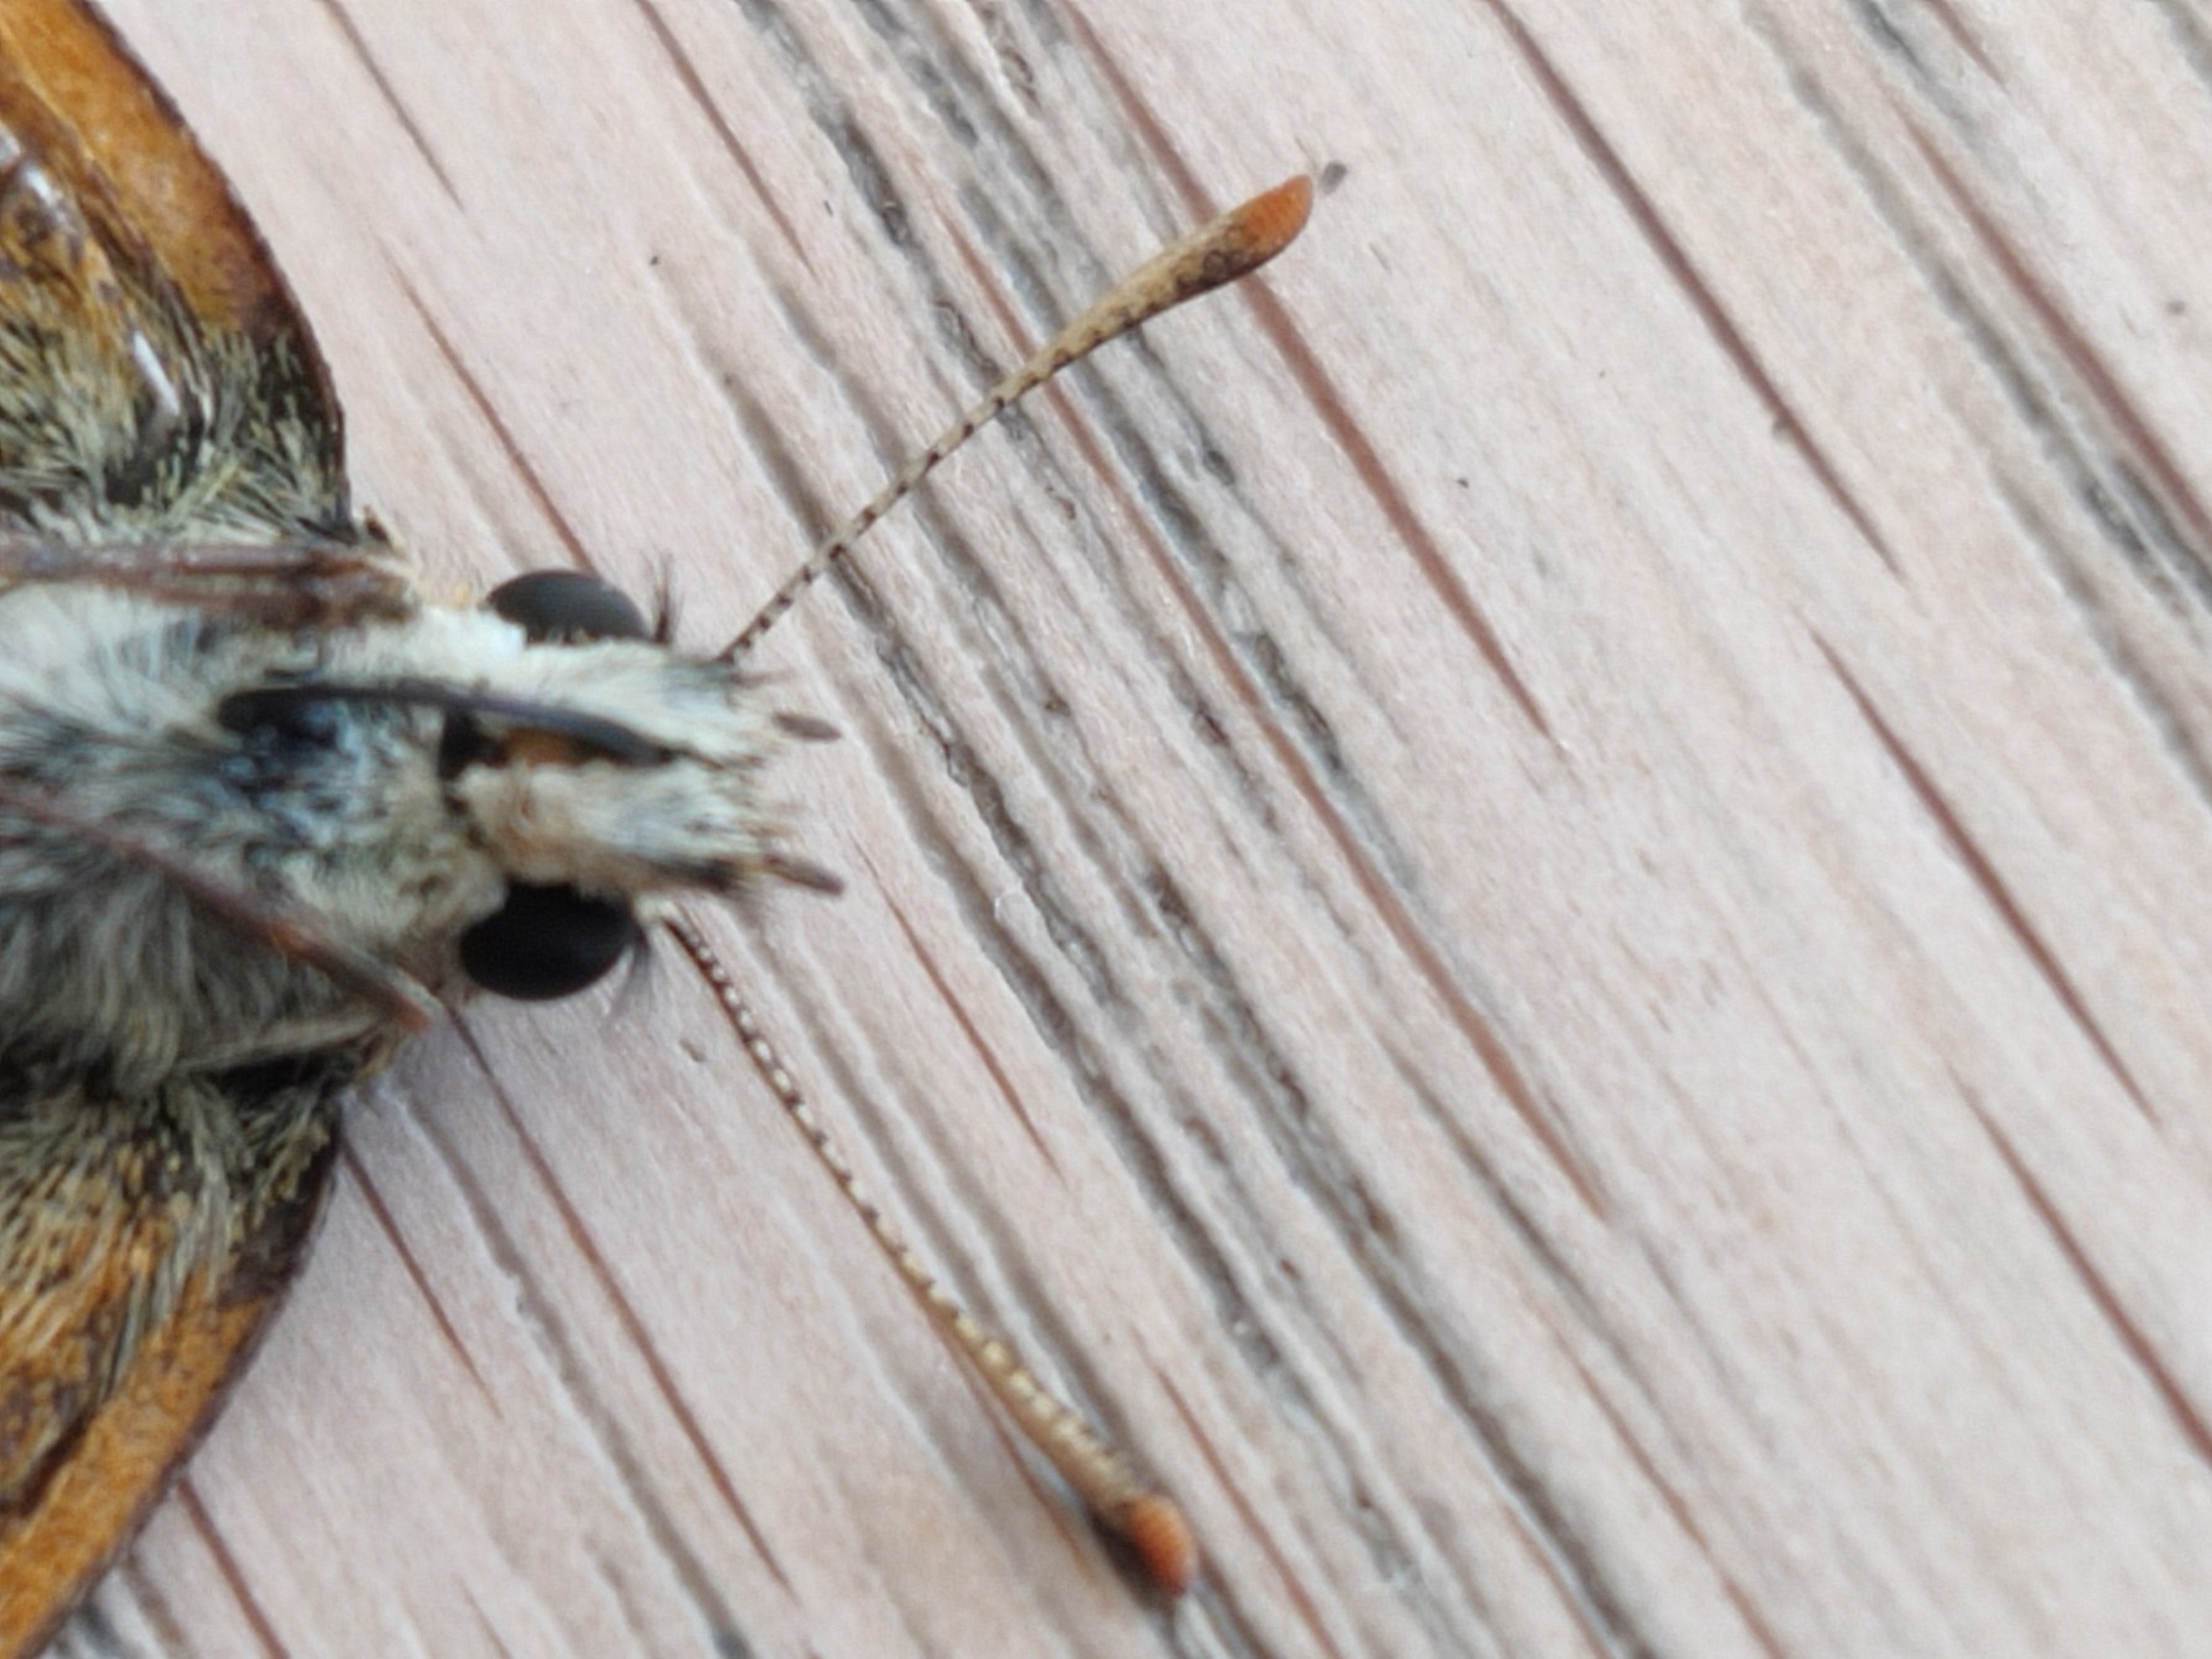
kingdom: Animalia
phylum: Arthropoda
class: Insecta
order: Lepidoptera
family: Hesperiidae
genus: Thymelicus
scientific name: Thymelicus sylvestris
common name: Skråstregbredpande
